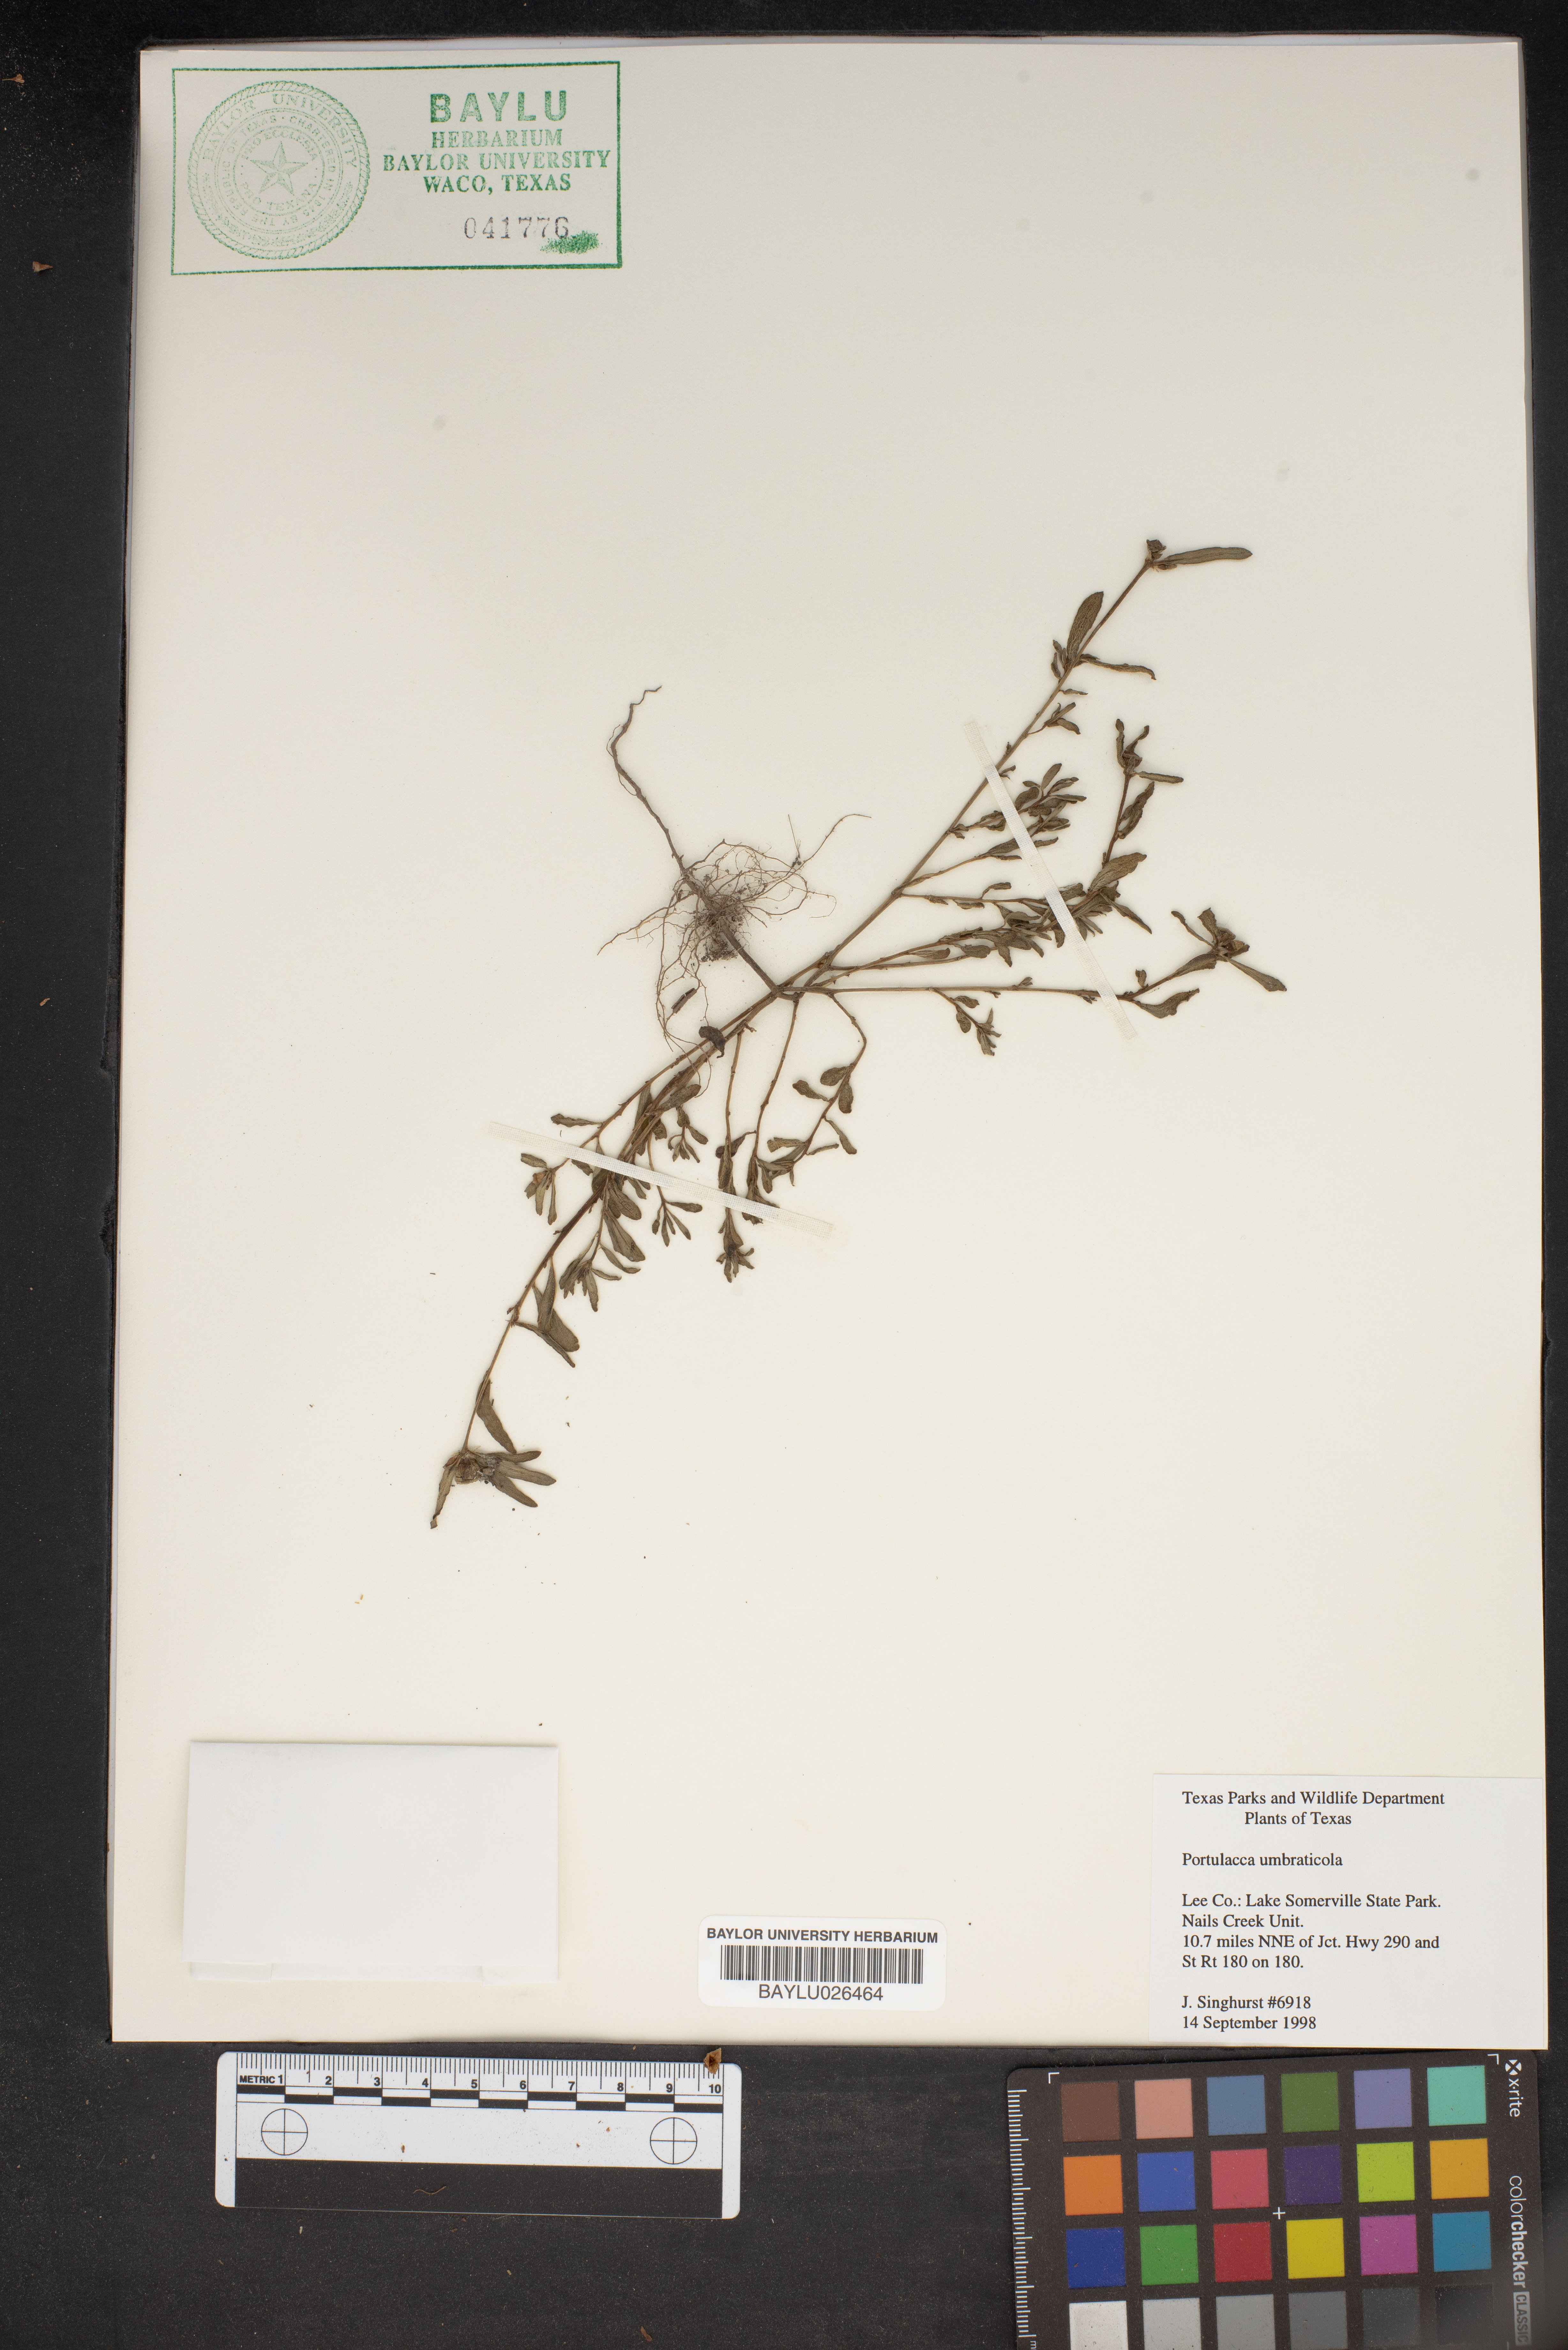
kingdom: Plantae
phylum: Tracheophyta
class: Magnoliopsida
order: Caryophyllales
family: Portulacaceae
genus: Portulaca
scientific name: Portulaca umbraticola
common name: Wingpod purslane
